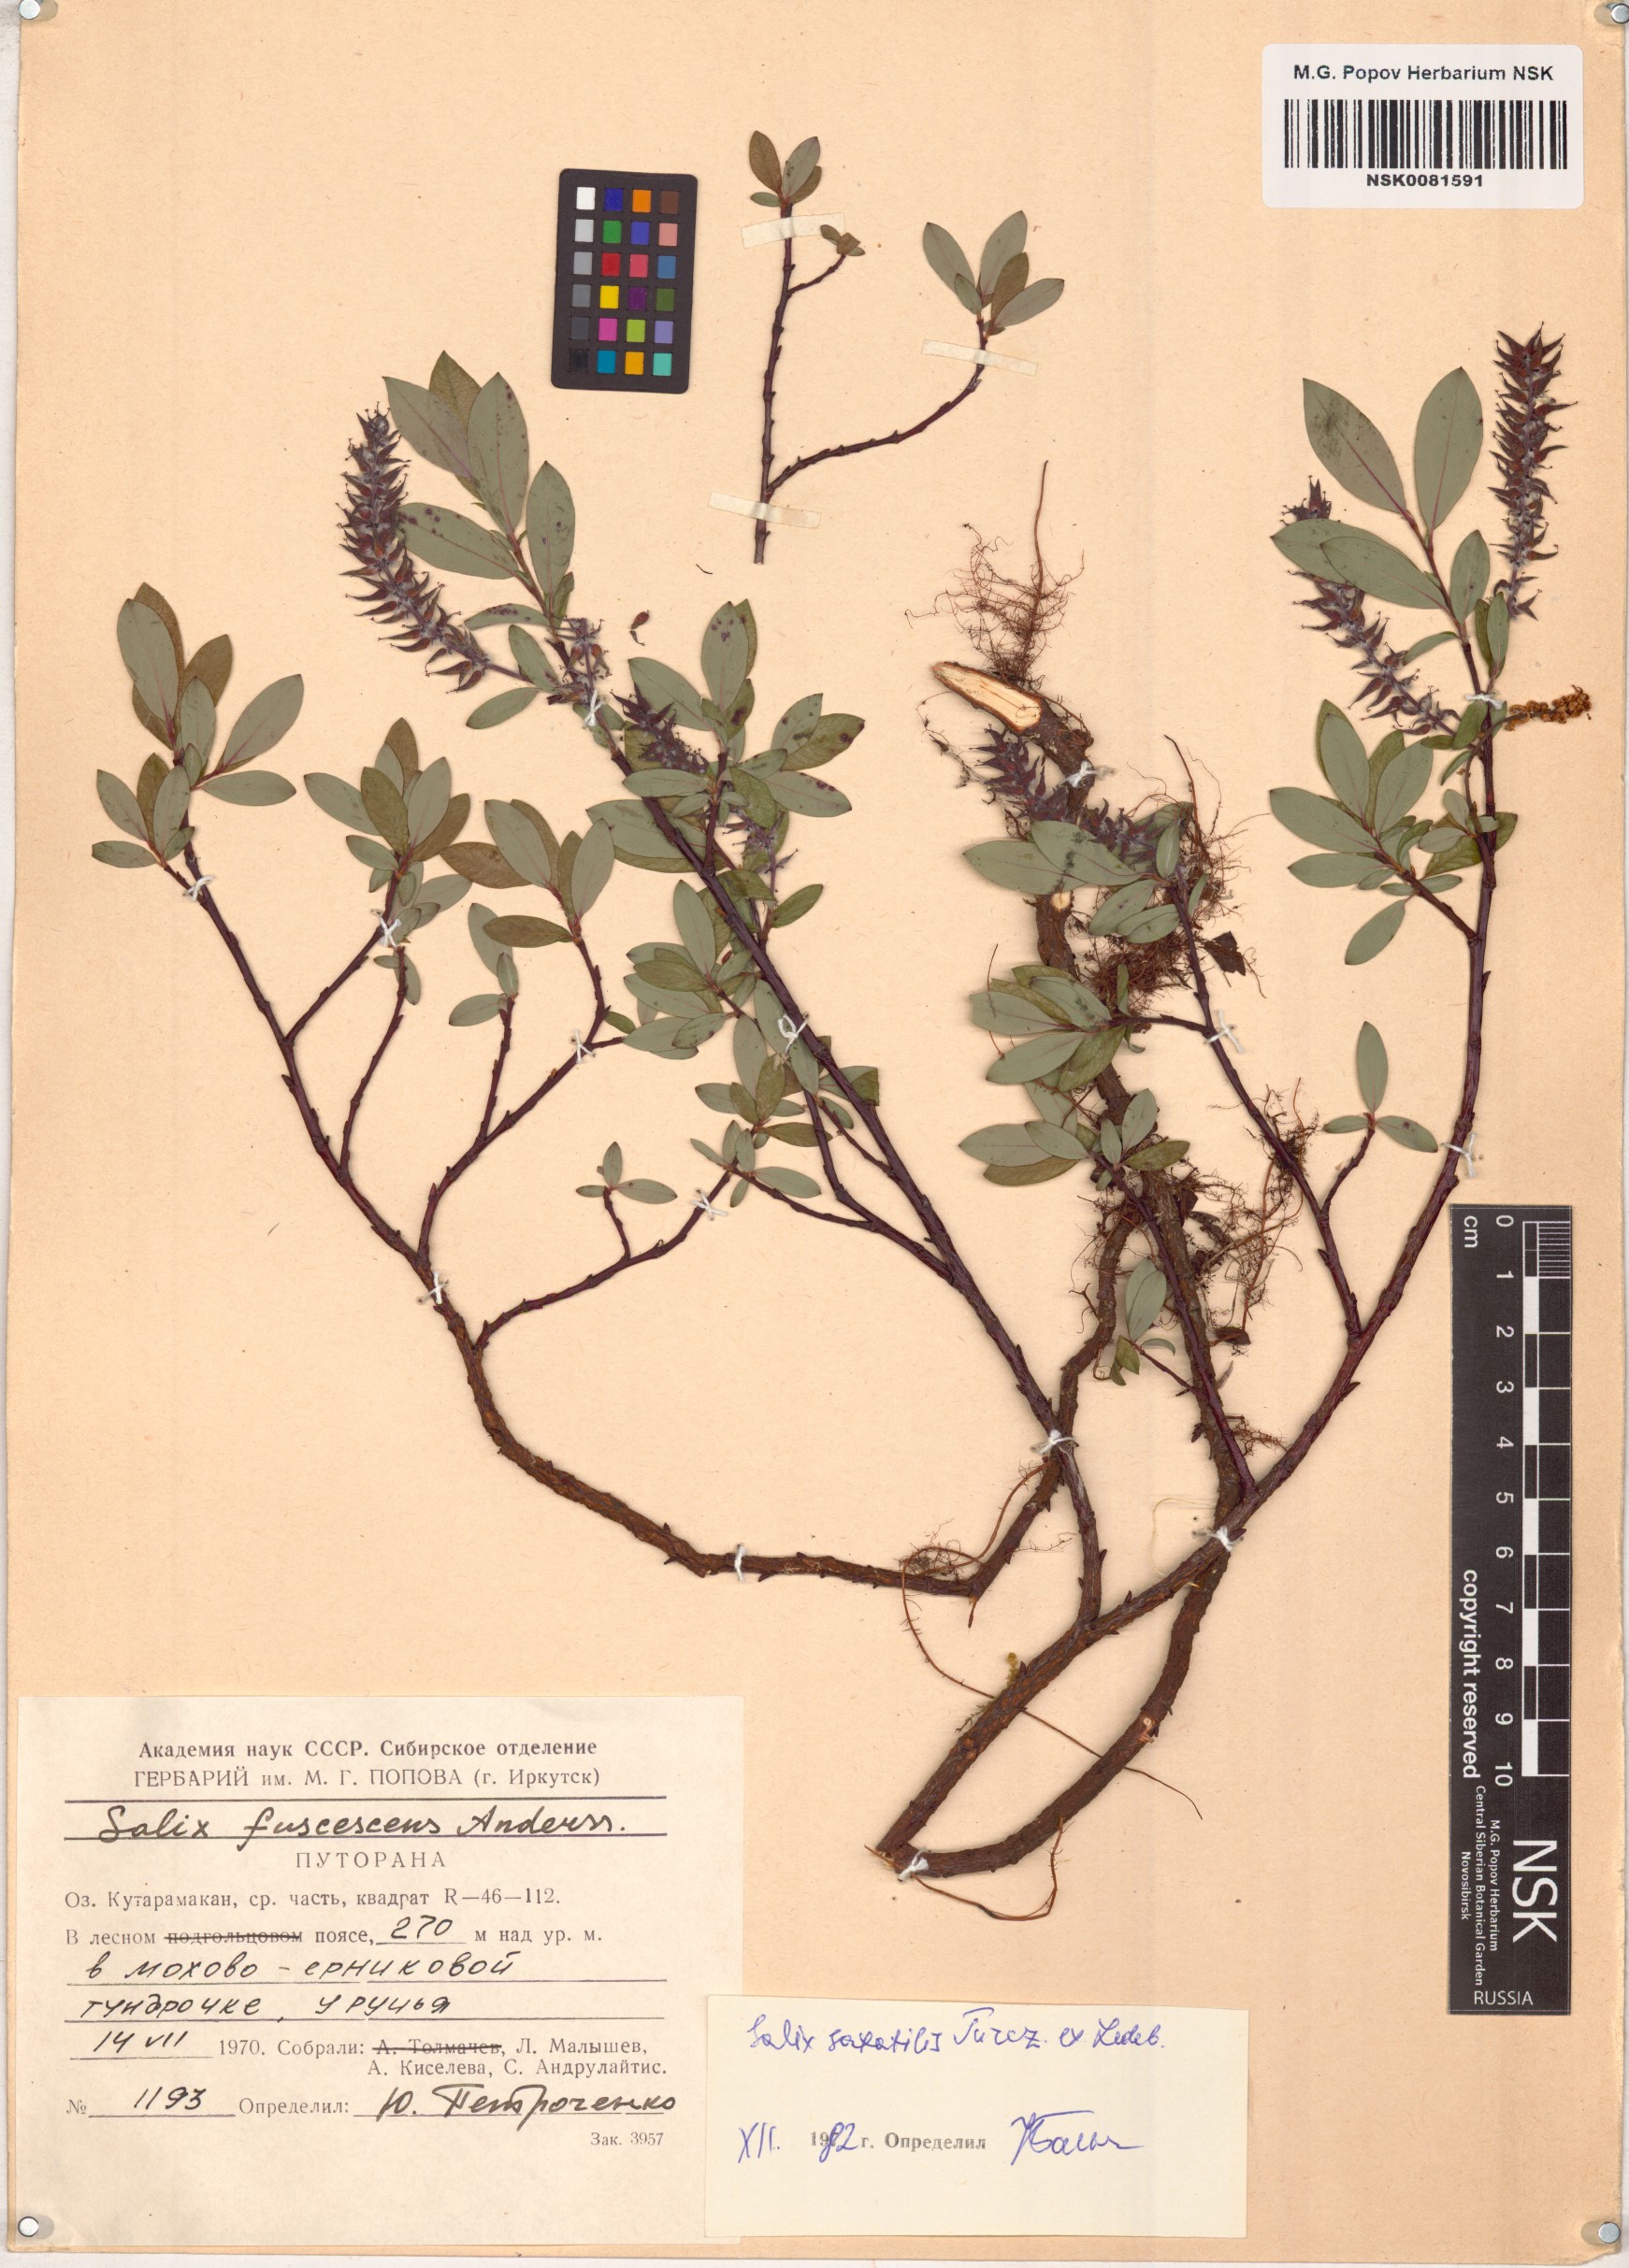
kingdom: Plantae
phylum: Tracheophyta
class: Magnoliopsida
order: Malpighiales
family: Salicaceae
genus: Salix
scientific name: Salix saxatilis
